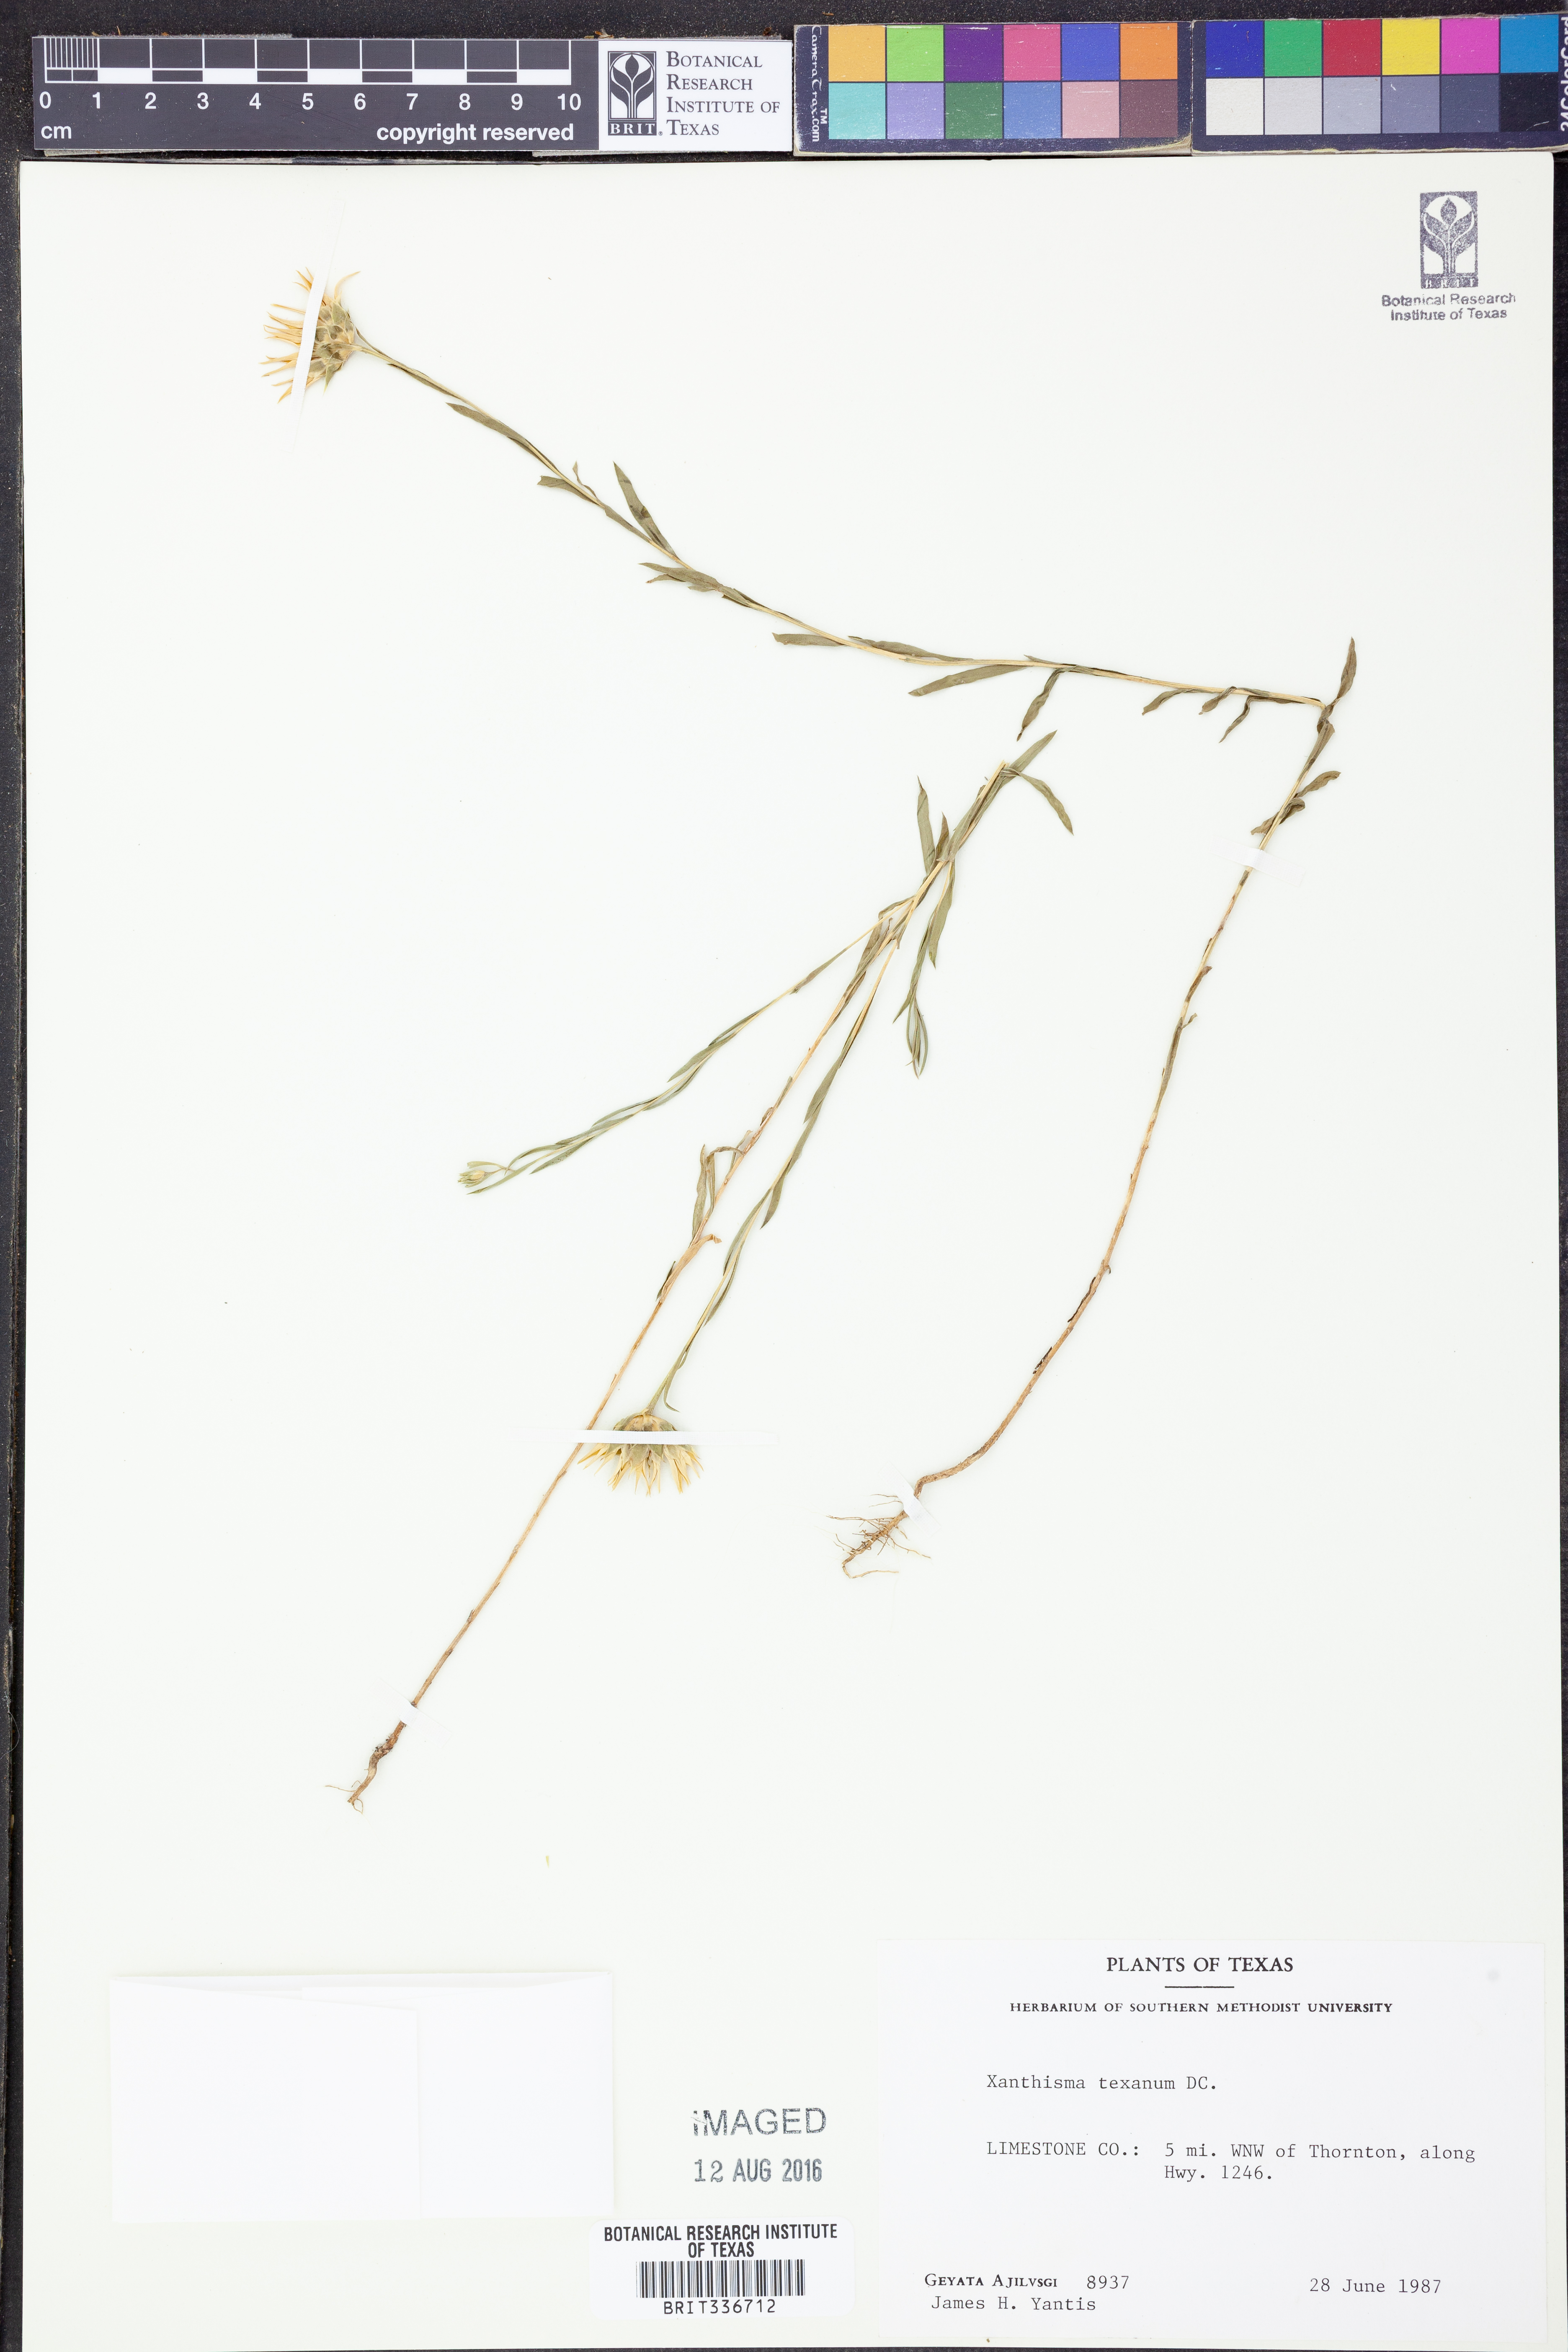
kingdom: Plantae
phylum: Tracheophyta
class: Magnoliopsida
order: Asterales
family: Asteraceae
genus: Xanthisma
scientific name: Xanthisma texanum
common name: Texas sleepy daisy
